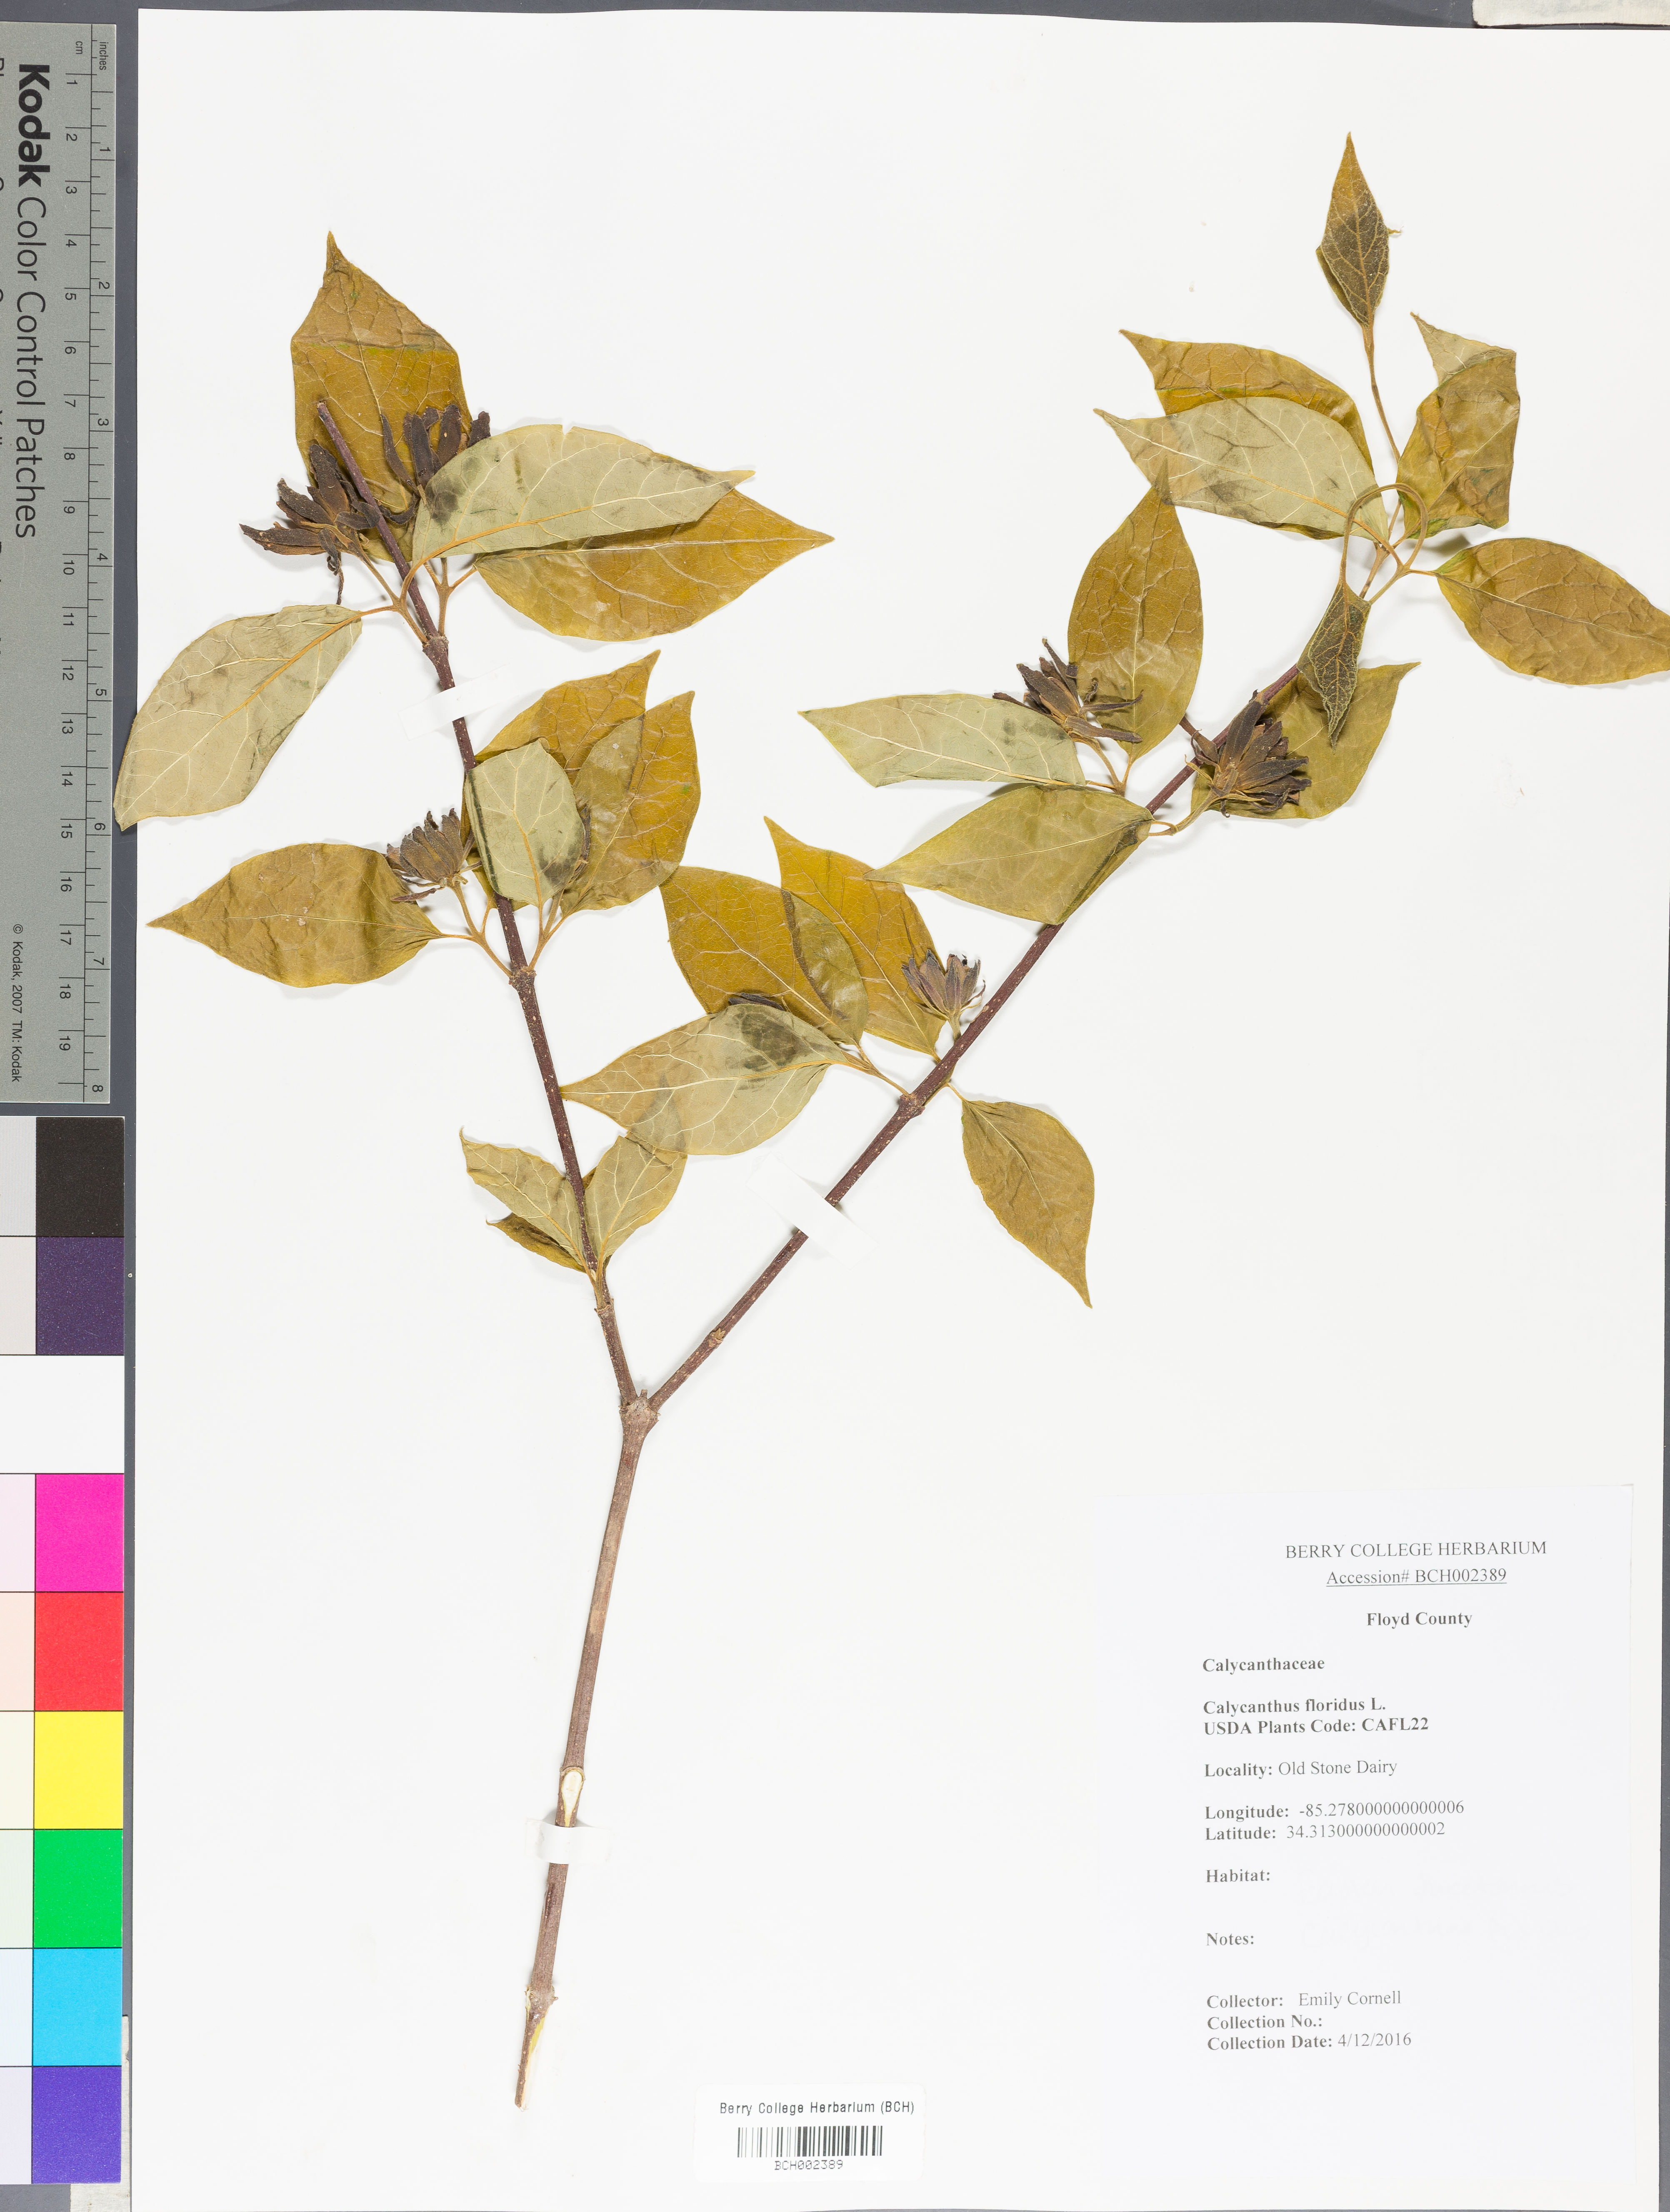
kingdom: Plantae
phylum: Tracheophyta
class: Magnoliopsida
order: Laurales
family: Calycanthaceae
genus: Calycanthus
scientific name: Calycanthus floridus
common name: Carolina-allspice
